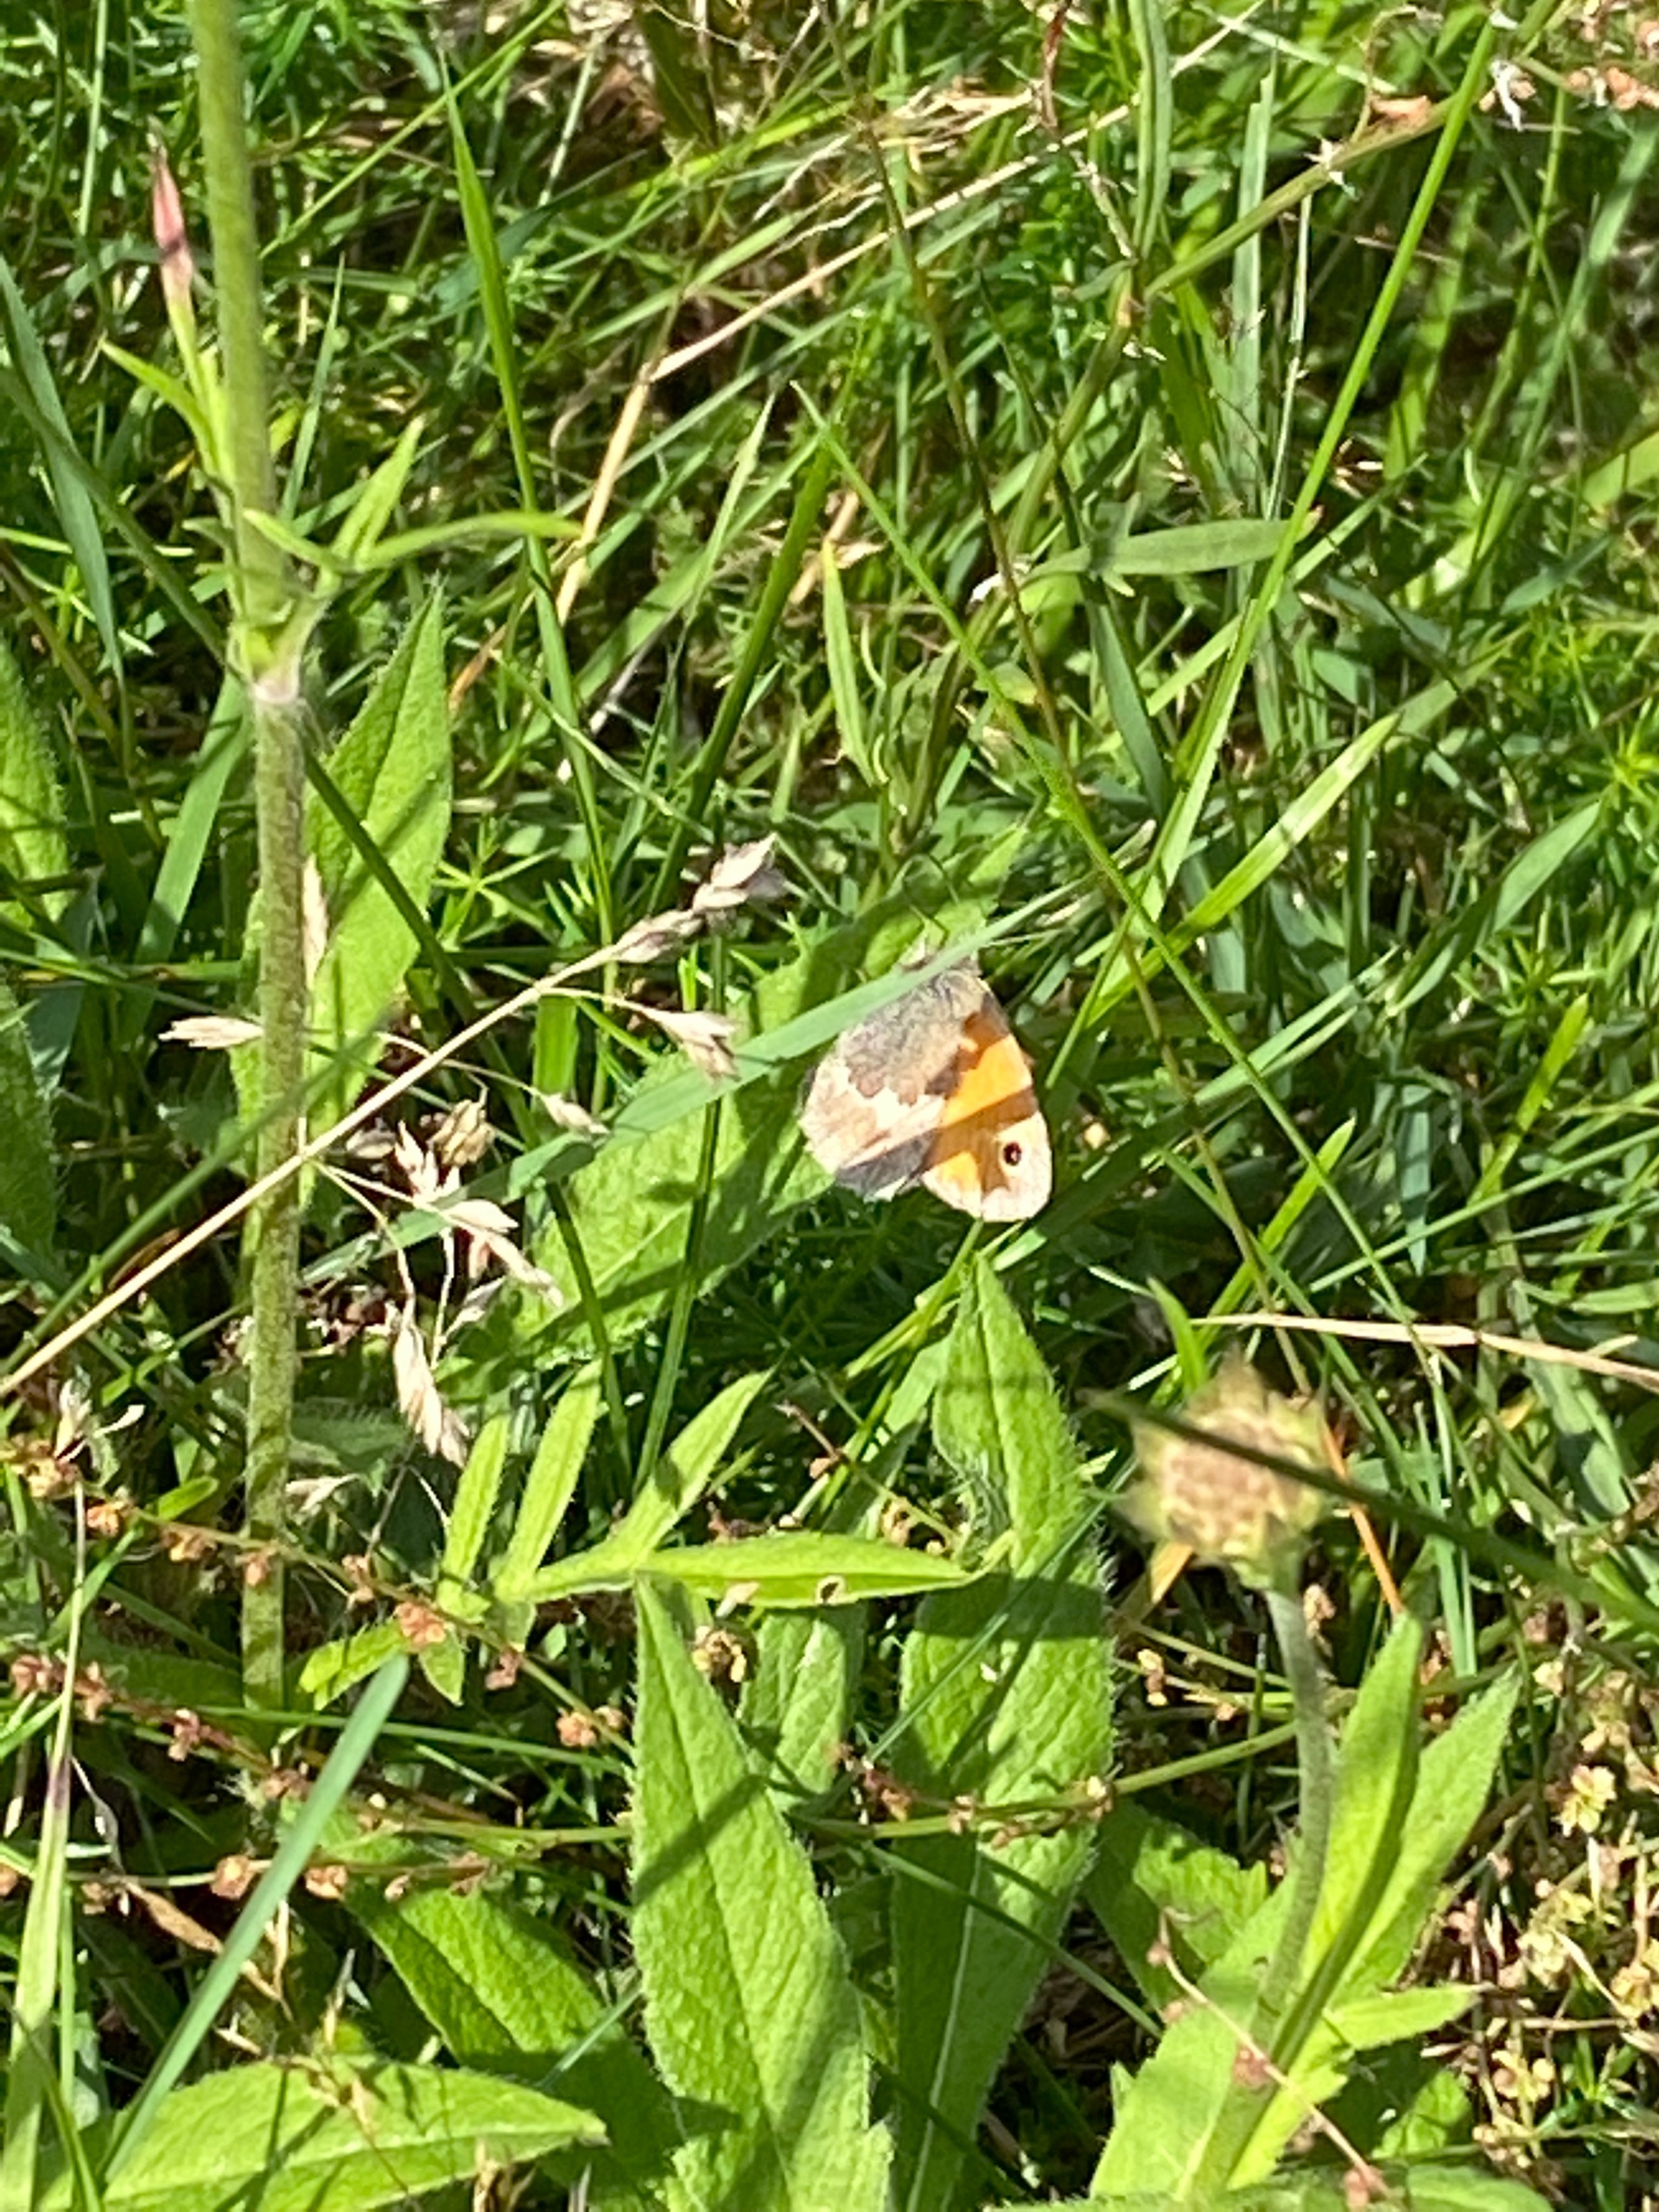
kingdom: Animalia
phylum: Arthropoda
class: Insecta
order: Lepidoptera
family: Nymphalidae
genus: Coenonympha
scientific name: Coenonympha pamphilus
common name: Okkergul randøje
